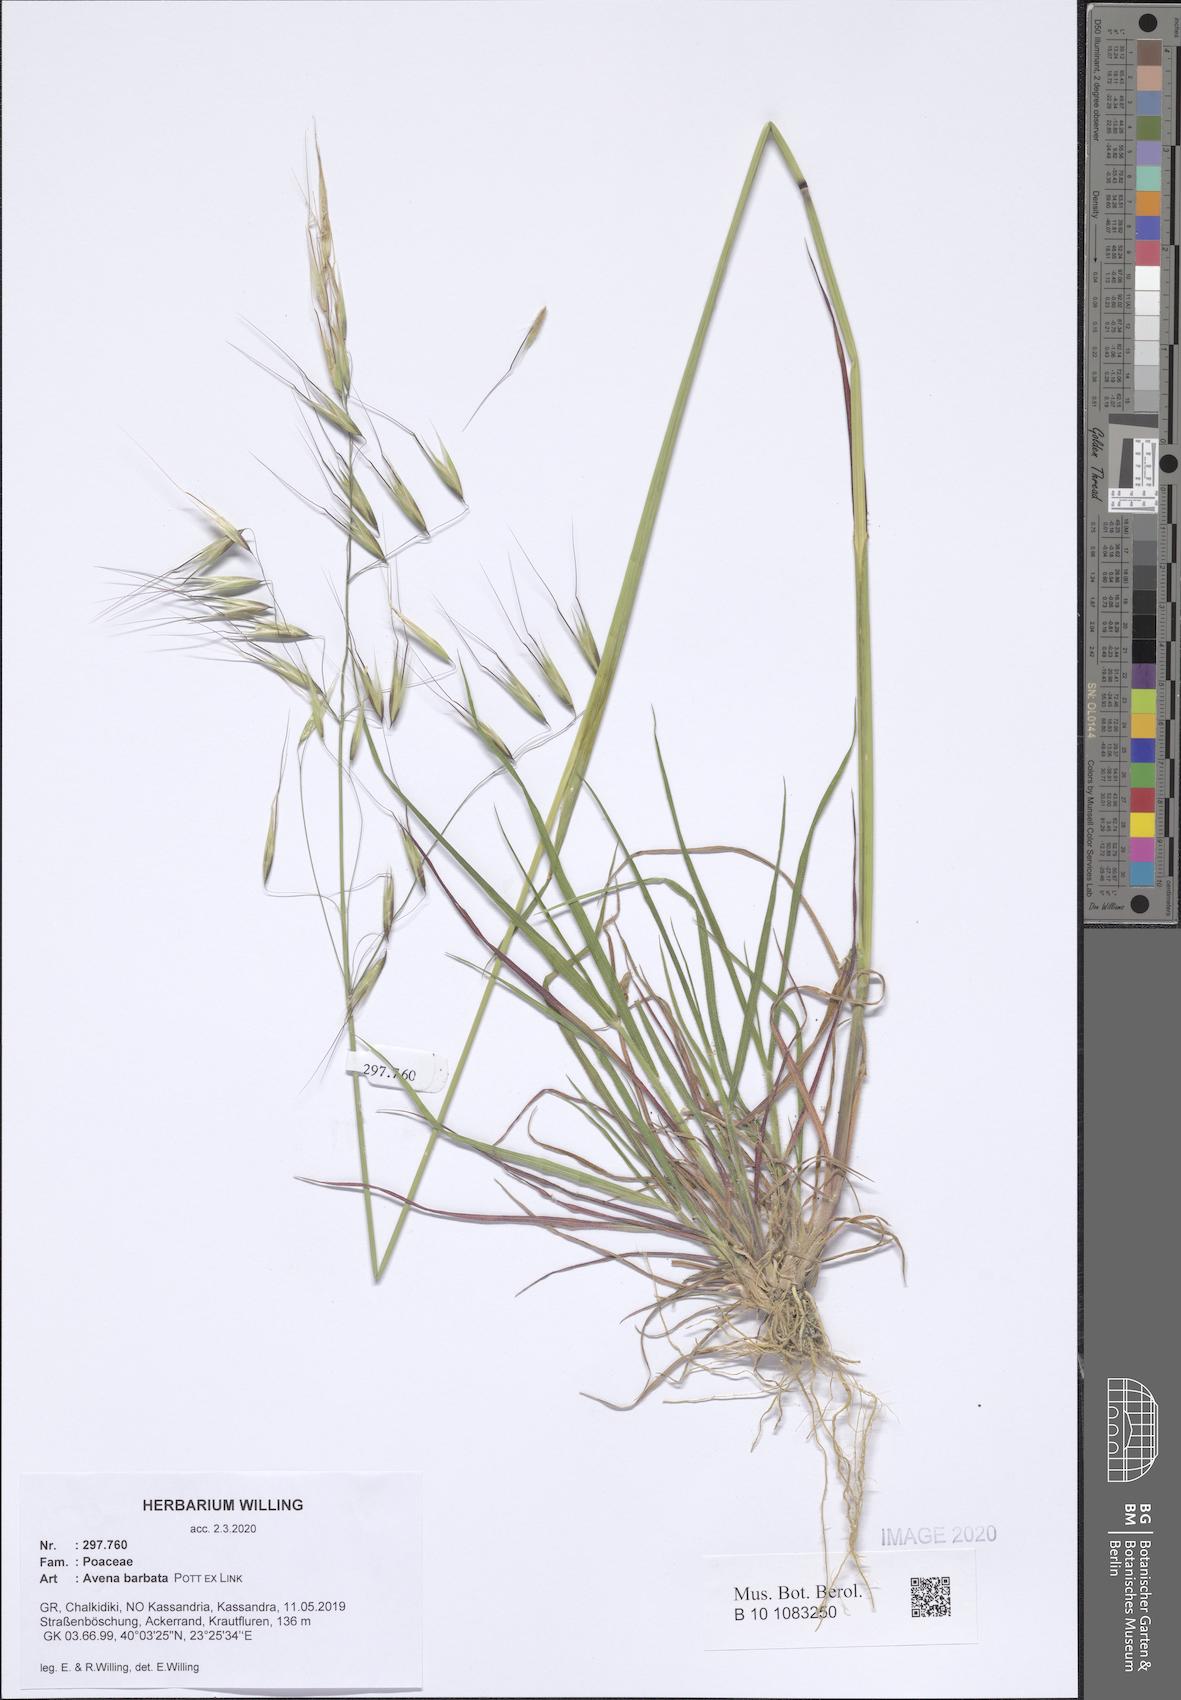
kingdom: Plantae
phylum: Tracheophyta
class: Liliopsida
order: Poales
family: Poaceae
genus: Avena
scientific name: Avena barbata
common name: Slender oat
